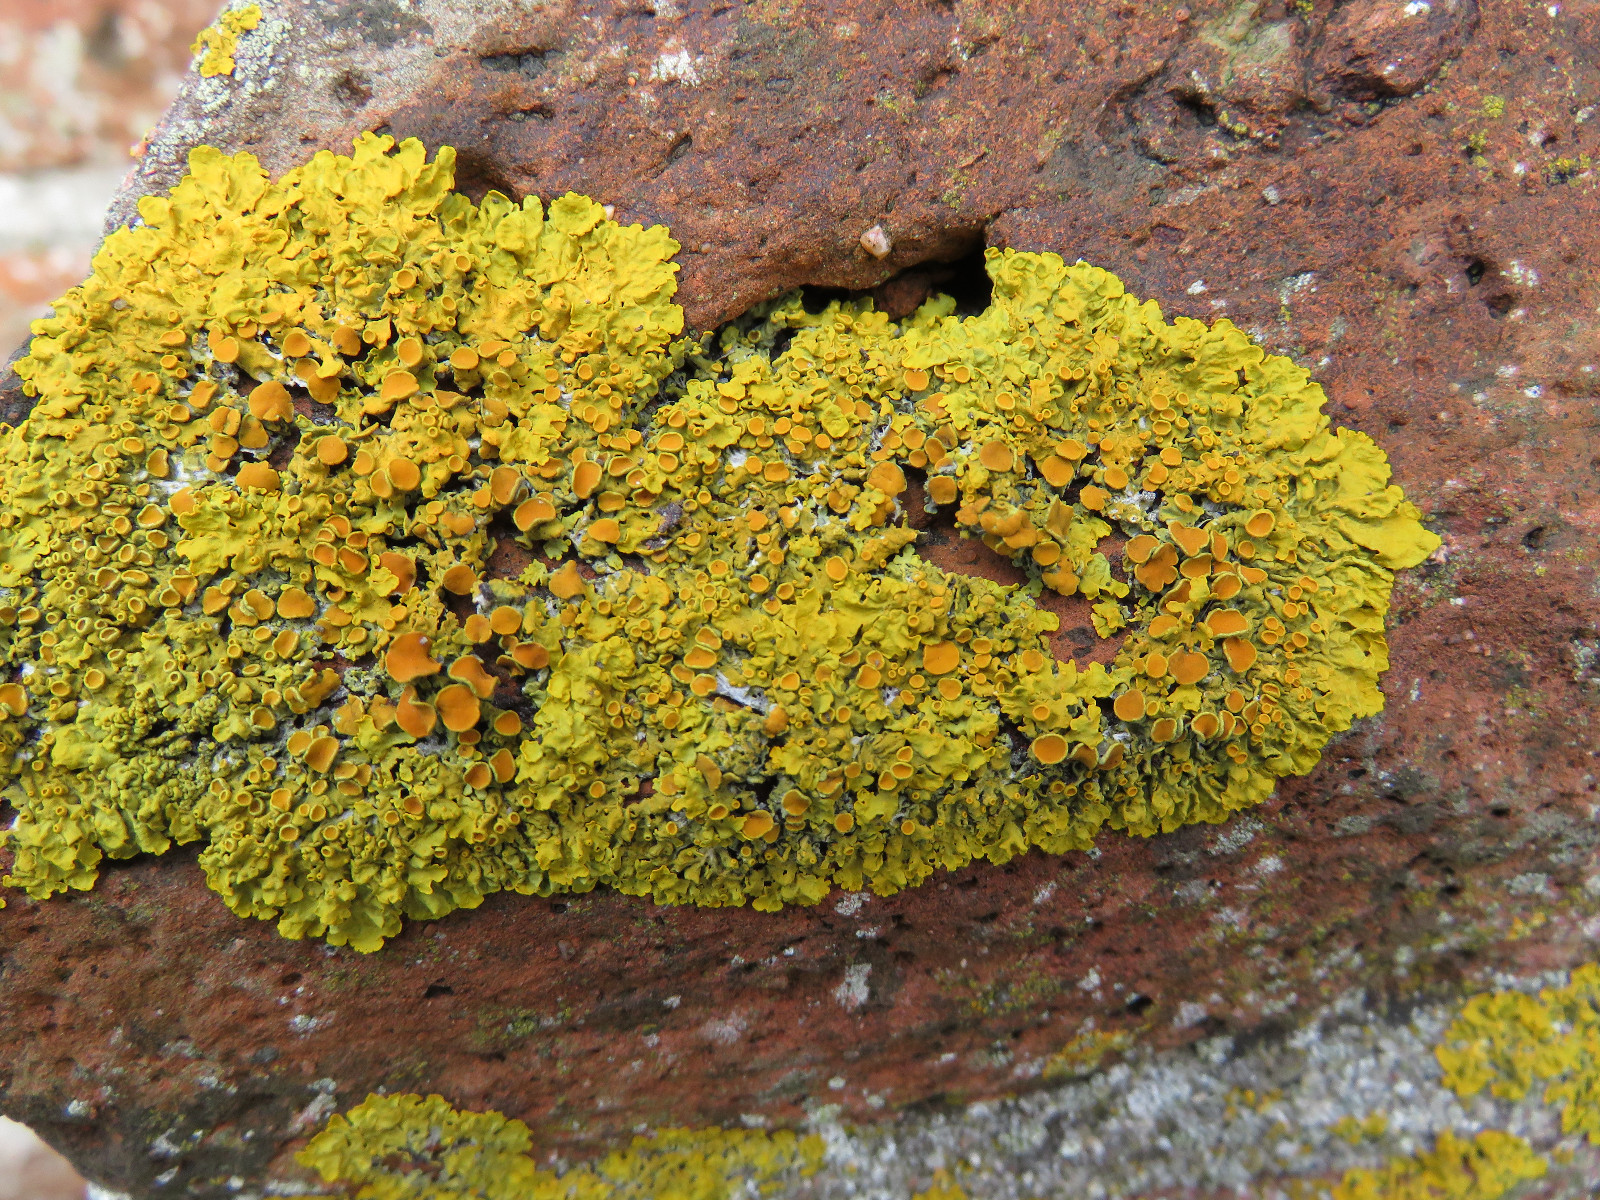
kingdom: Fungi
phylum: Ascomycota
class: Lecanoromycetes
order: Teloschistales
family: Teloschistaceae
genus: Xanthoria
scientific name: Xanthoria parietina
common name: almindelig væggelav
